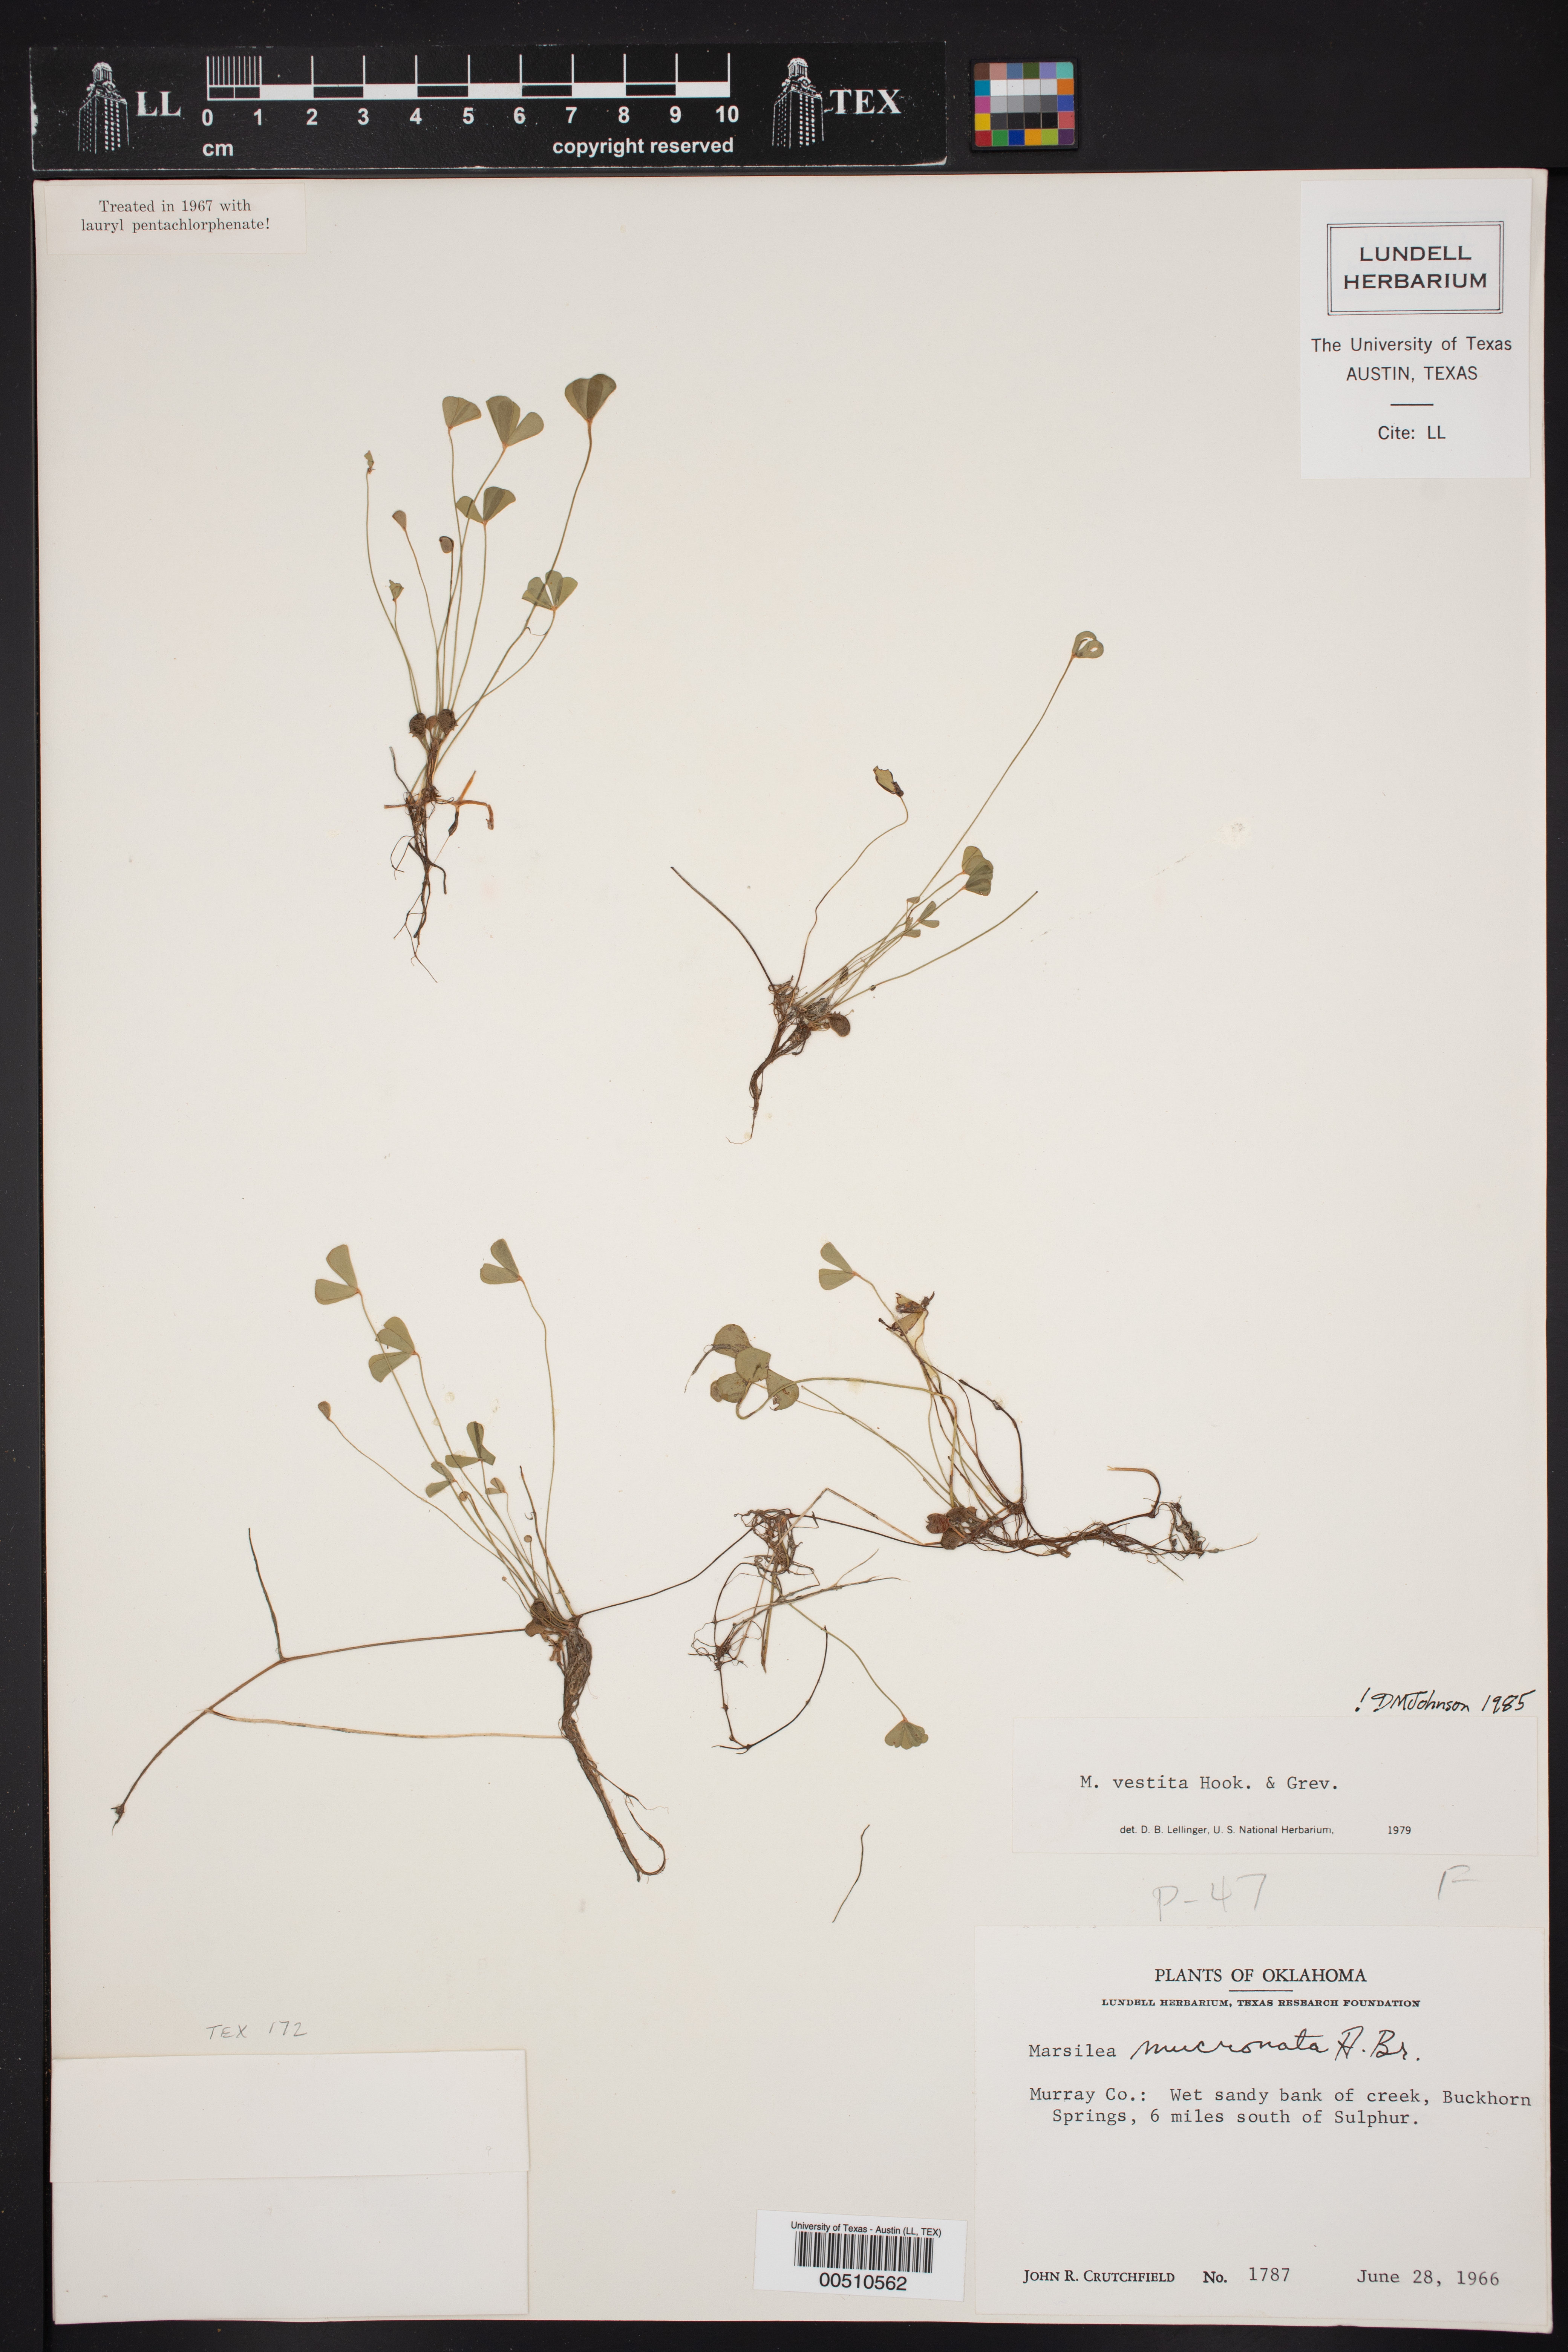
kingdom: Plantae
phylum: Tracheophyta
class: Polypodiopsida
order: Salviniales
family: Marsileaceae
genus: Marsilea
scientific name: Marsilea vestita
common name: Hooked-pepperwort
